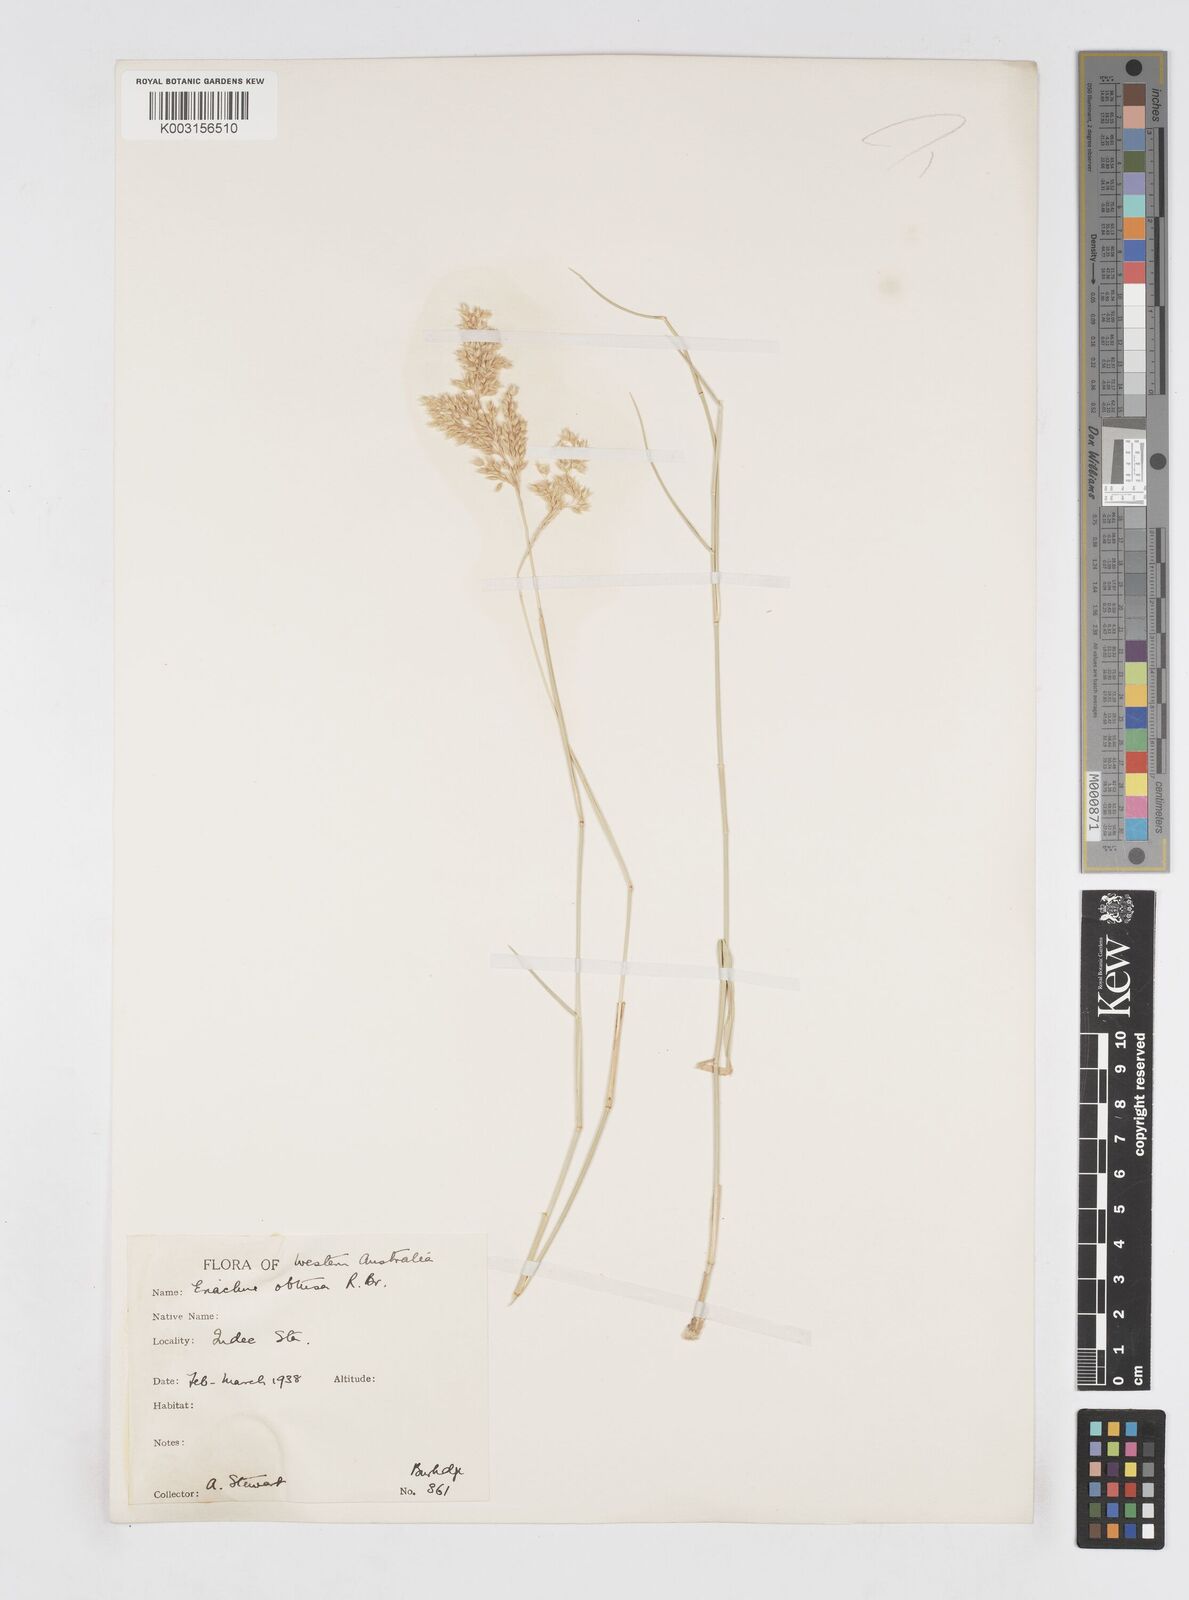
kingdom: Plantae
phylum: Tracheophyta
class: Liliopsida
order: Poales
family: Poaceae
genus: Eriachne
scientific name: Eriachne obtusa
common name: Northern wanderrie grass
